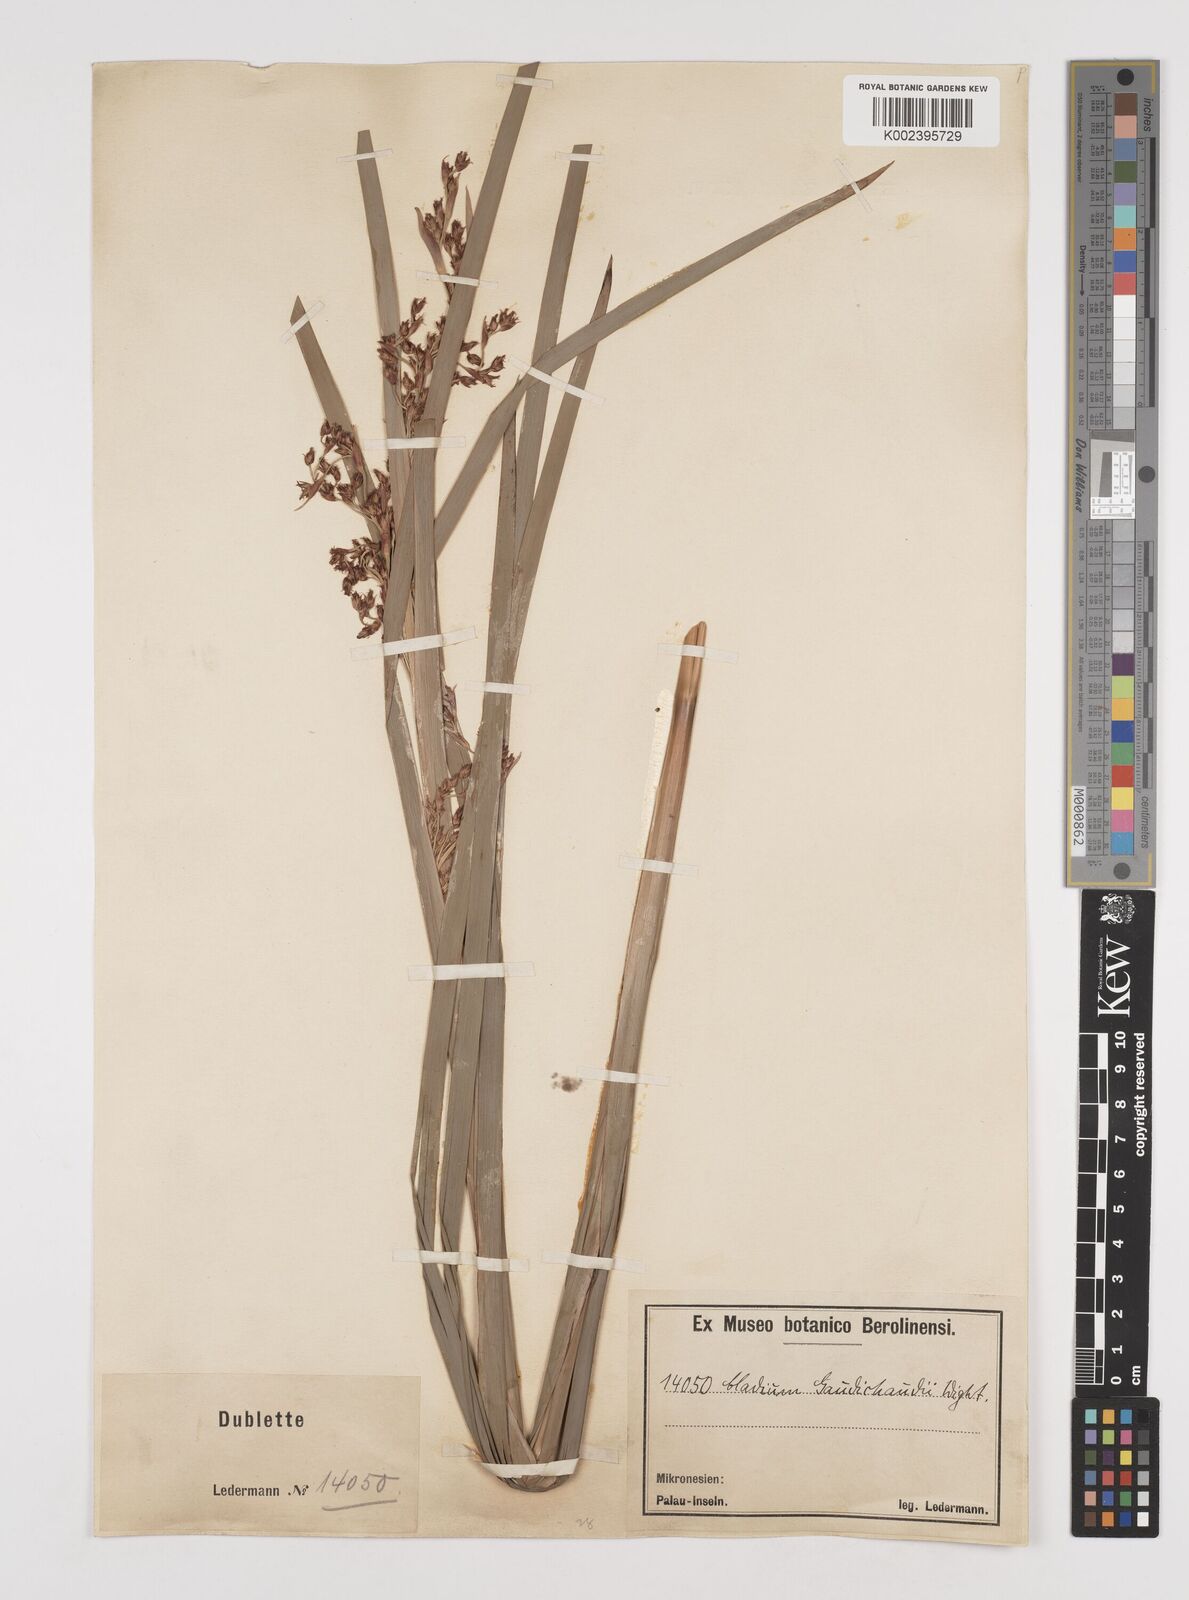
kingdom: Plantae
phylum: Tracheophyta
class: Liliopsida
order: Poales
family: Cyperaceae
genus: Machaerina
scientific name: Machaerina mariscoides
